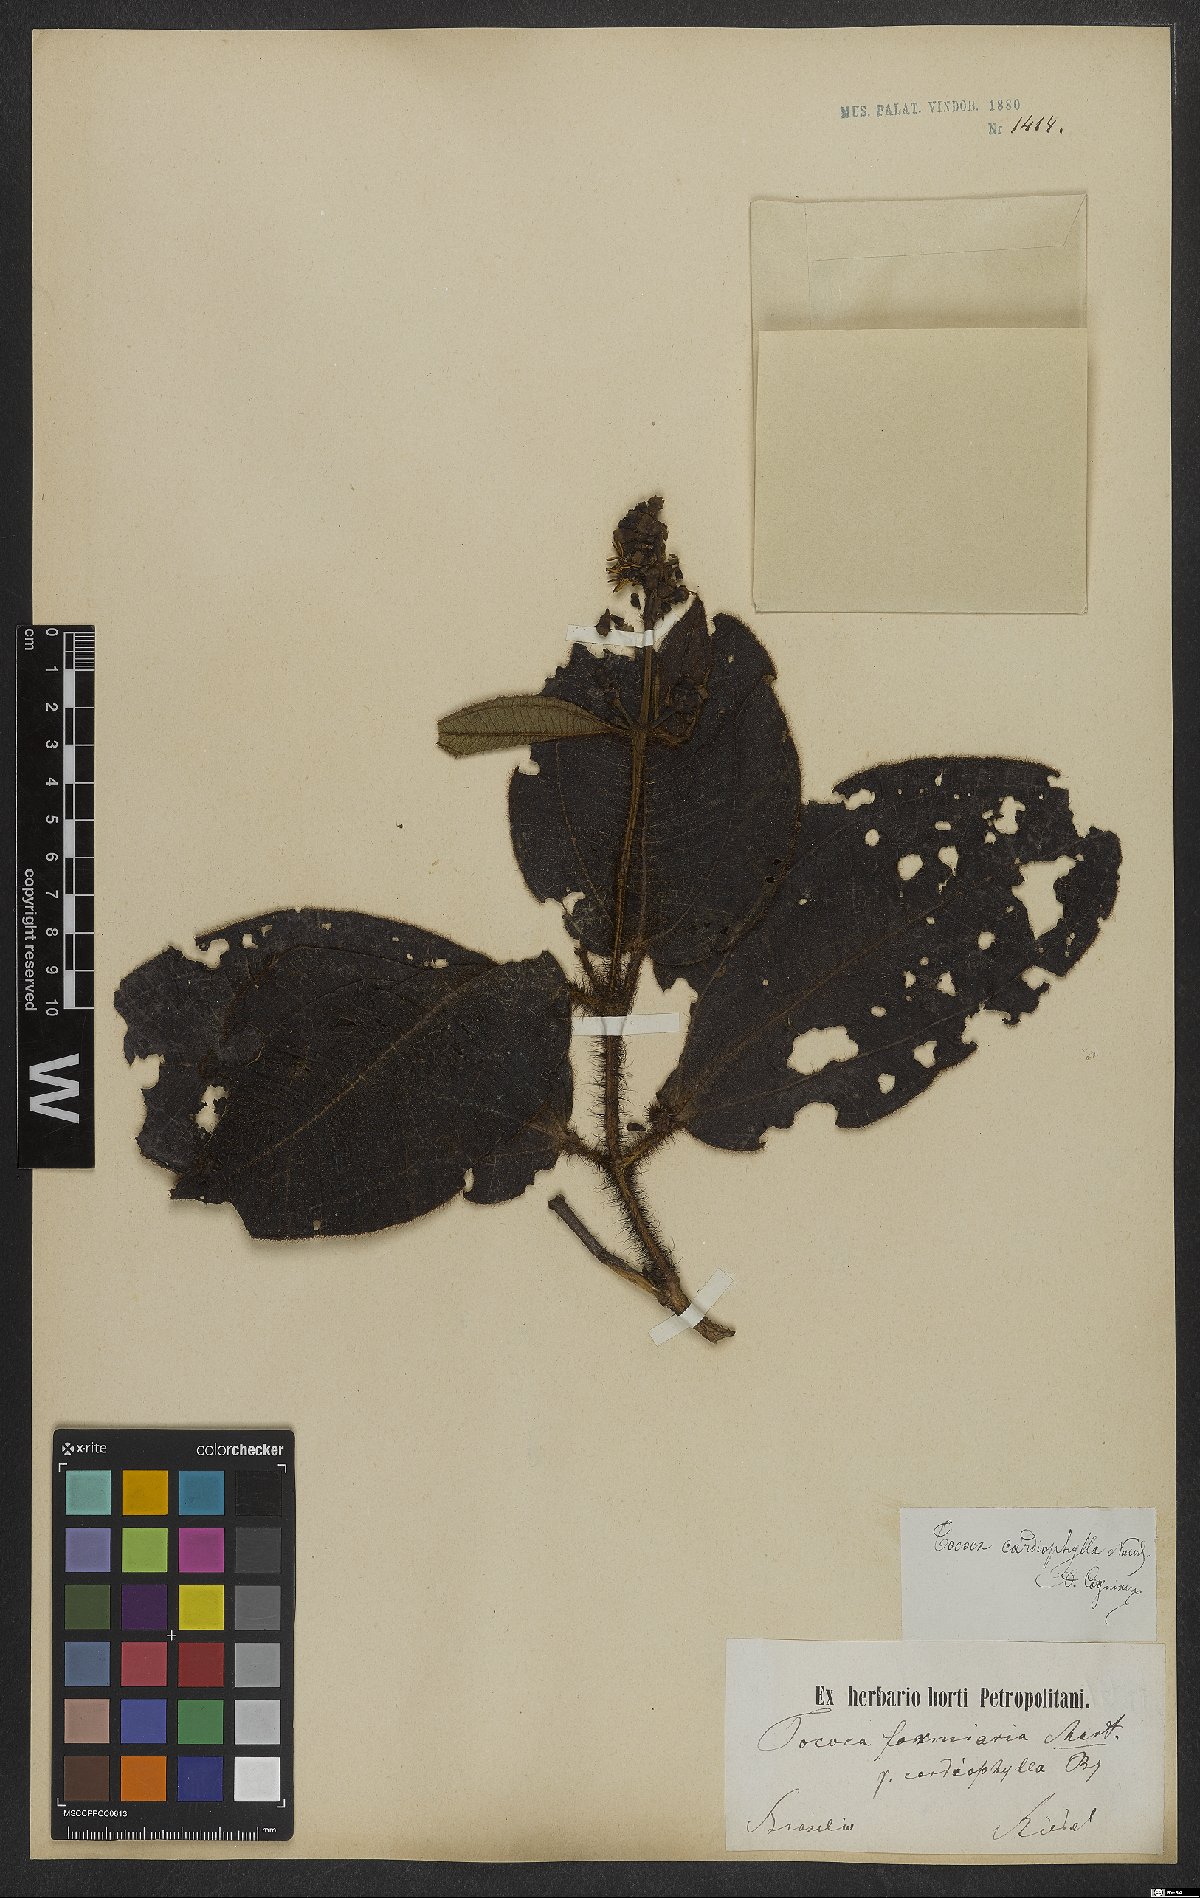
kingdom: Plantae
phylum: Tracheophyta
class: Magnoliopsida
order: Myrtales
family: Melastomataceae
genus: Miconia
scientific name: Miconia tococa
